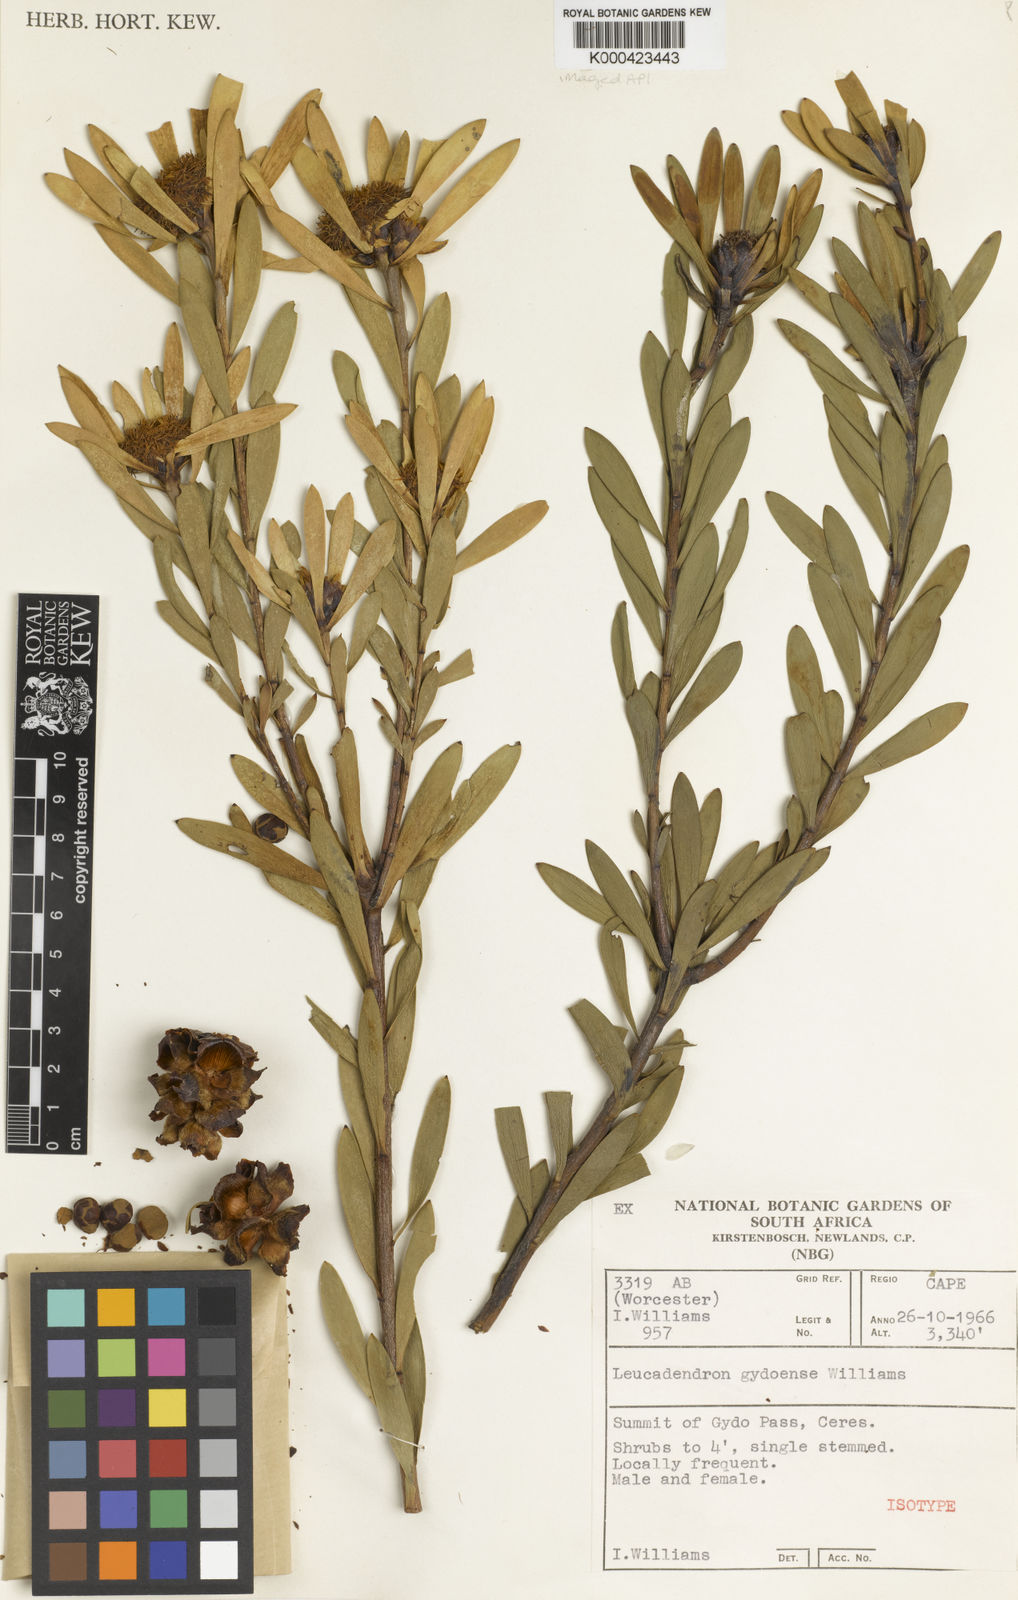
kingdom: Plantae
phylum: Tracheophyta
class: Magnoliopsida
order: Proteales
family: Proteaceae
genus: Leucadendron
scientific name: Leucadendron gydoense
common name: Gydo conebush
